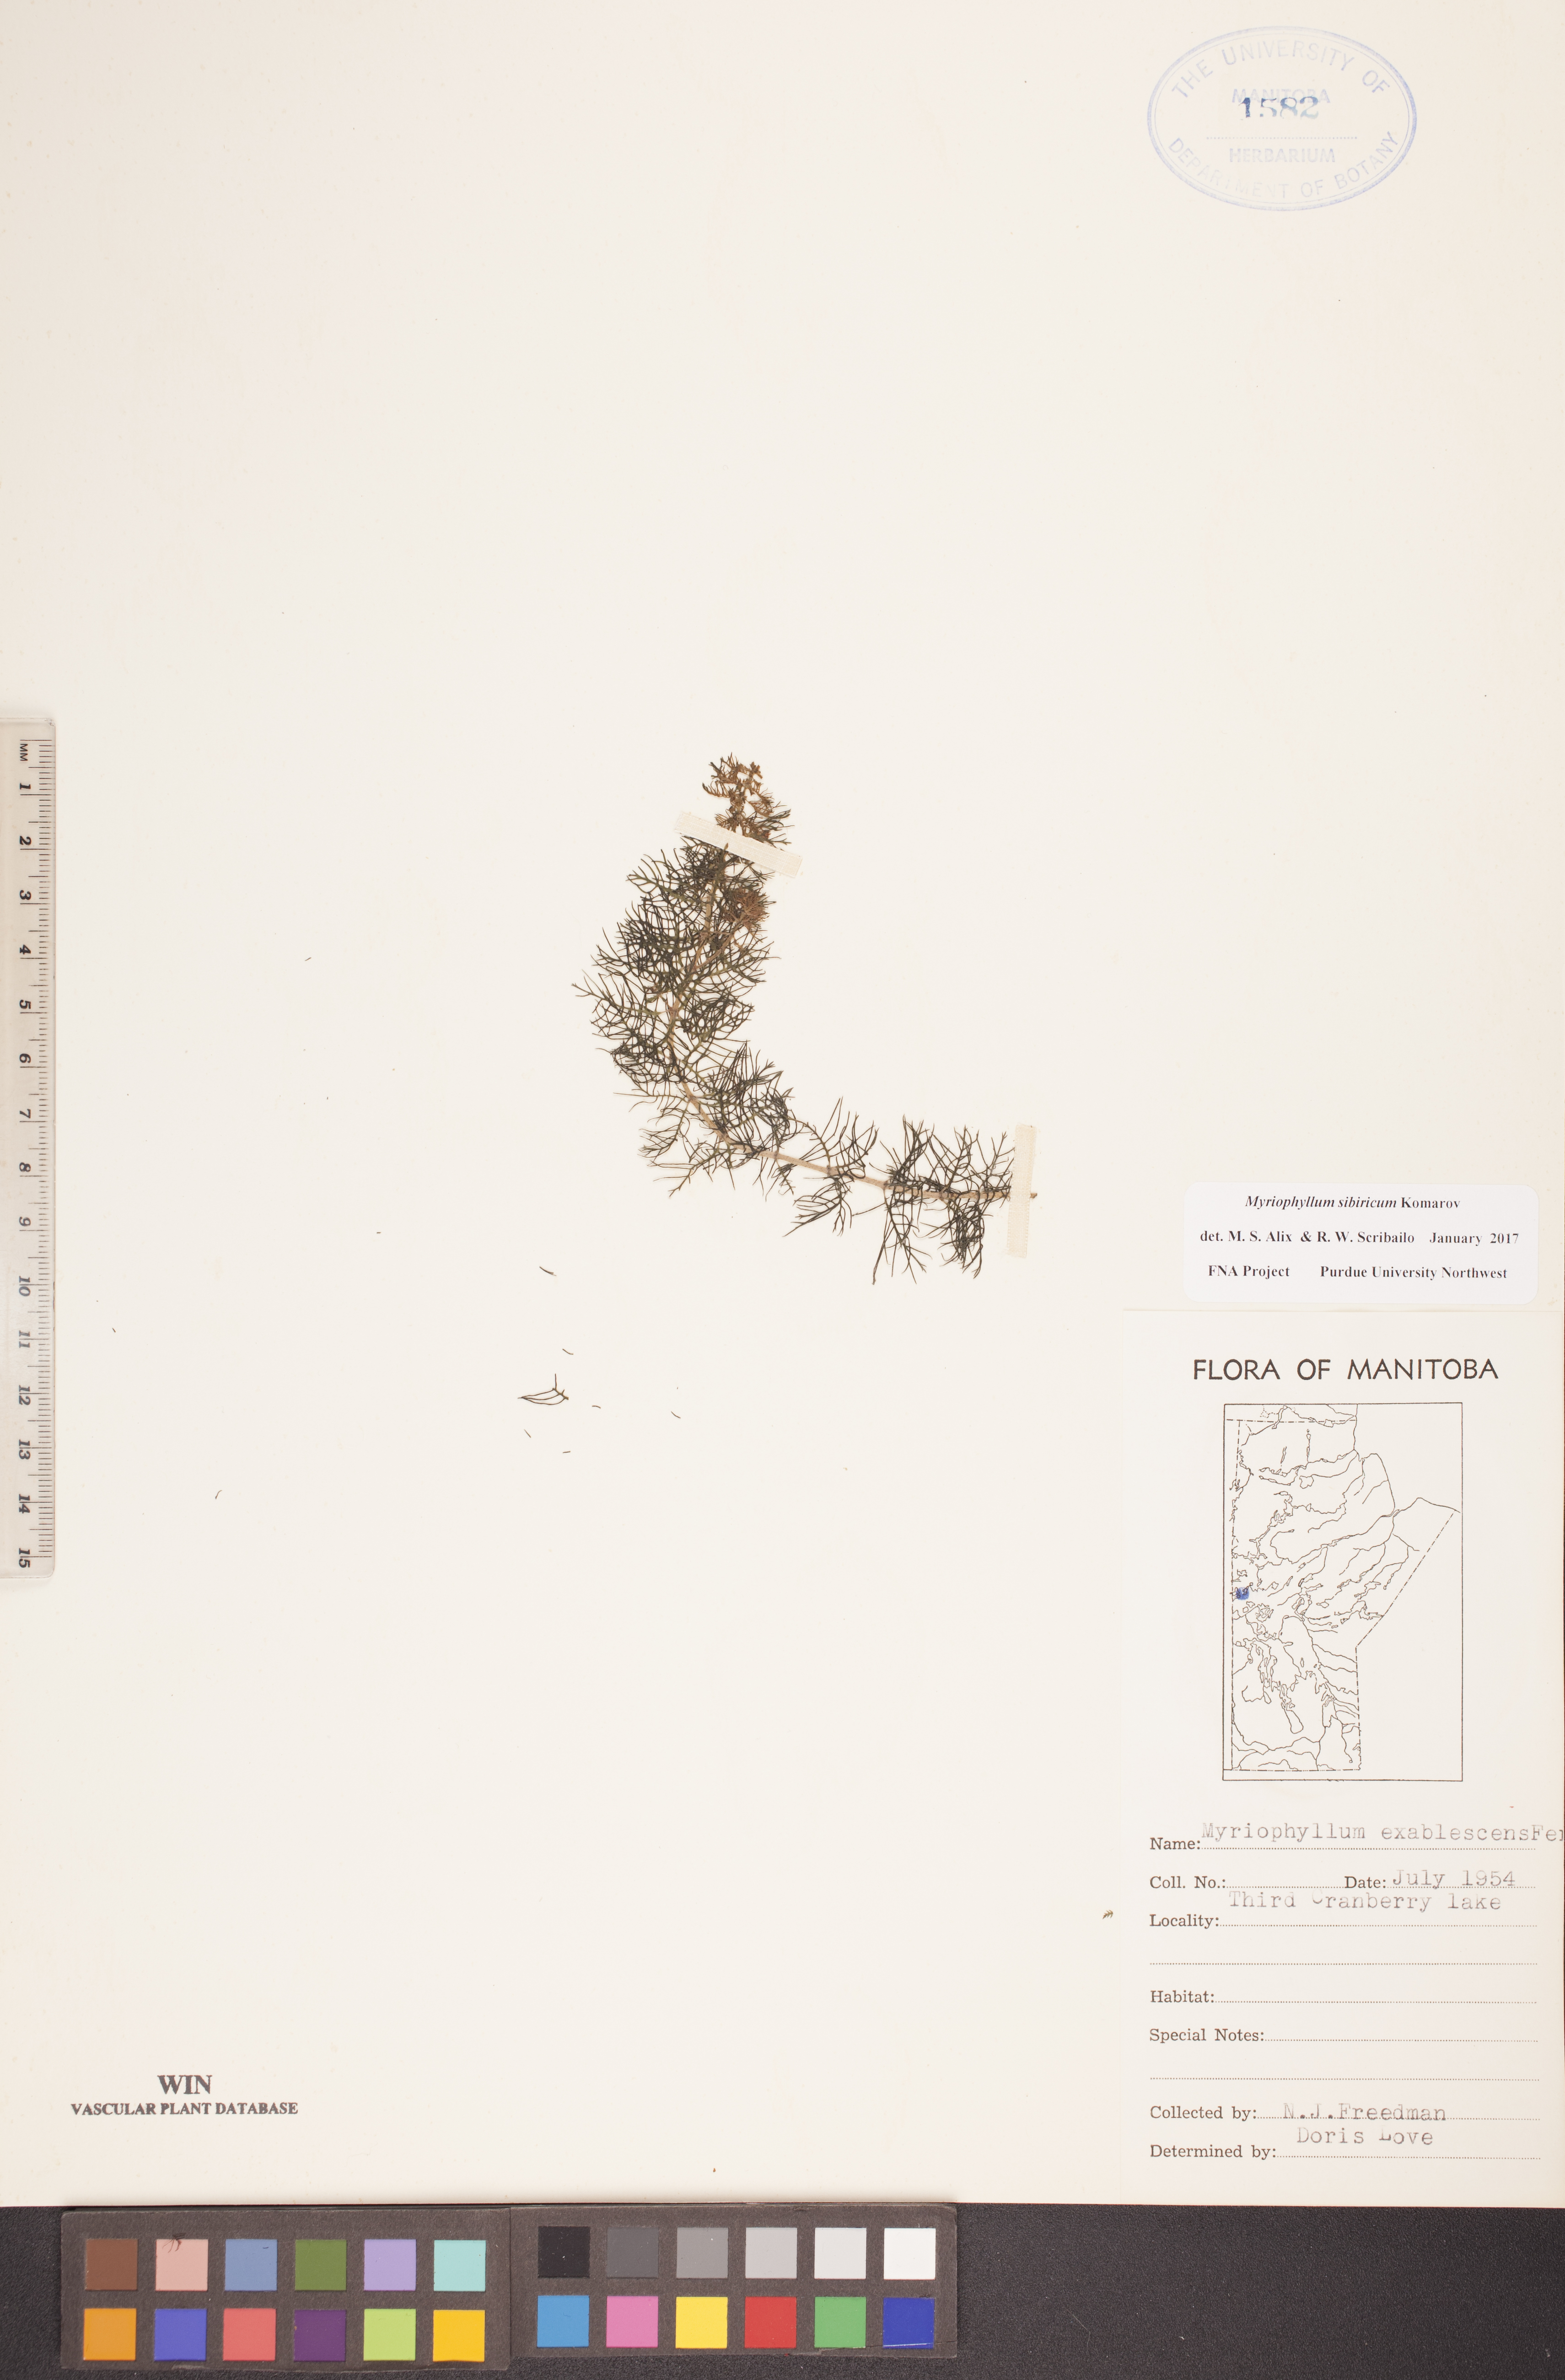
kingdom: Plantae
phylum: Tracheophyta
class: Magnoliopsida
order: Saxifragales
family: Haloragaceae
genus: Myriophyllum
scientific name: Myriophyllum sibiricum
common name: Siberian water-milfoil
